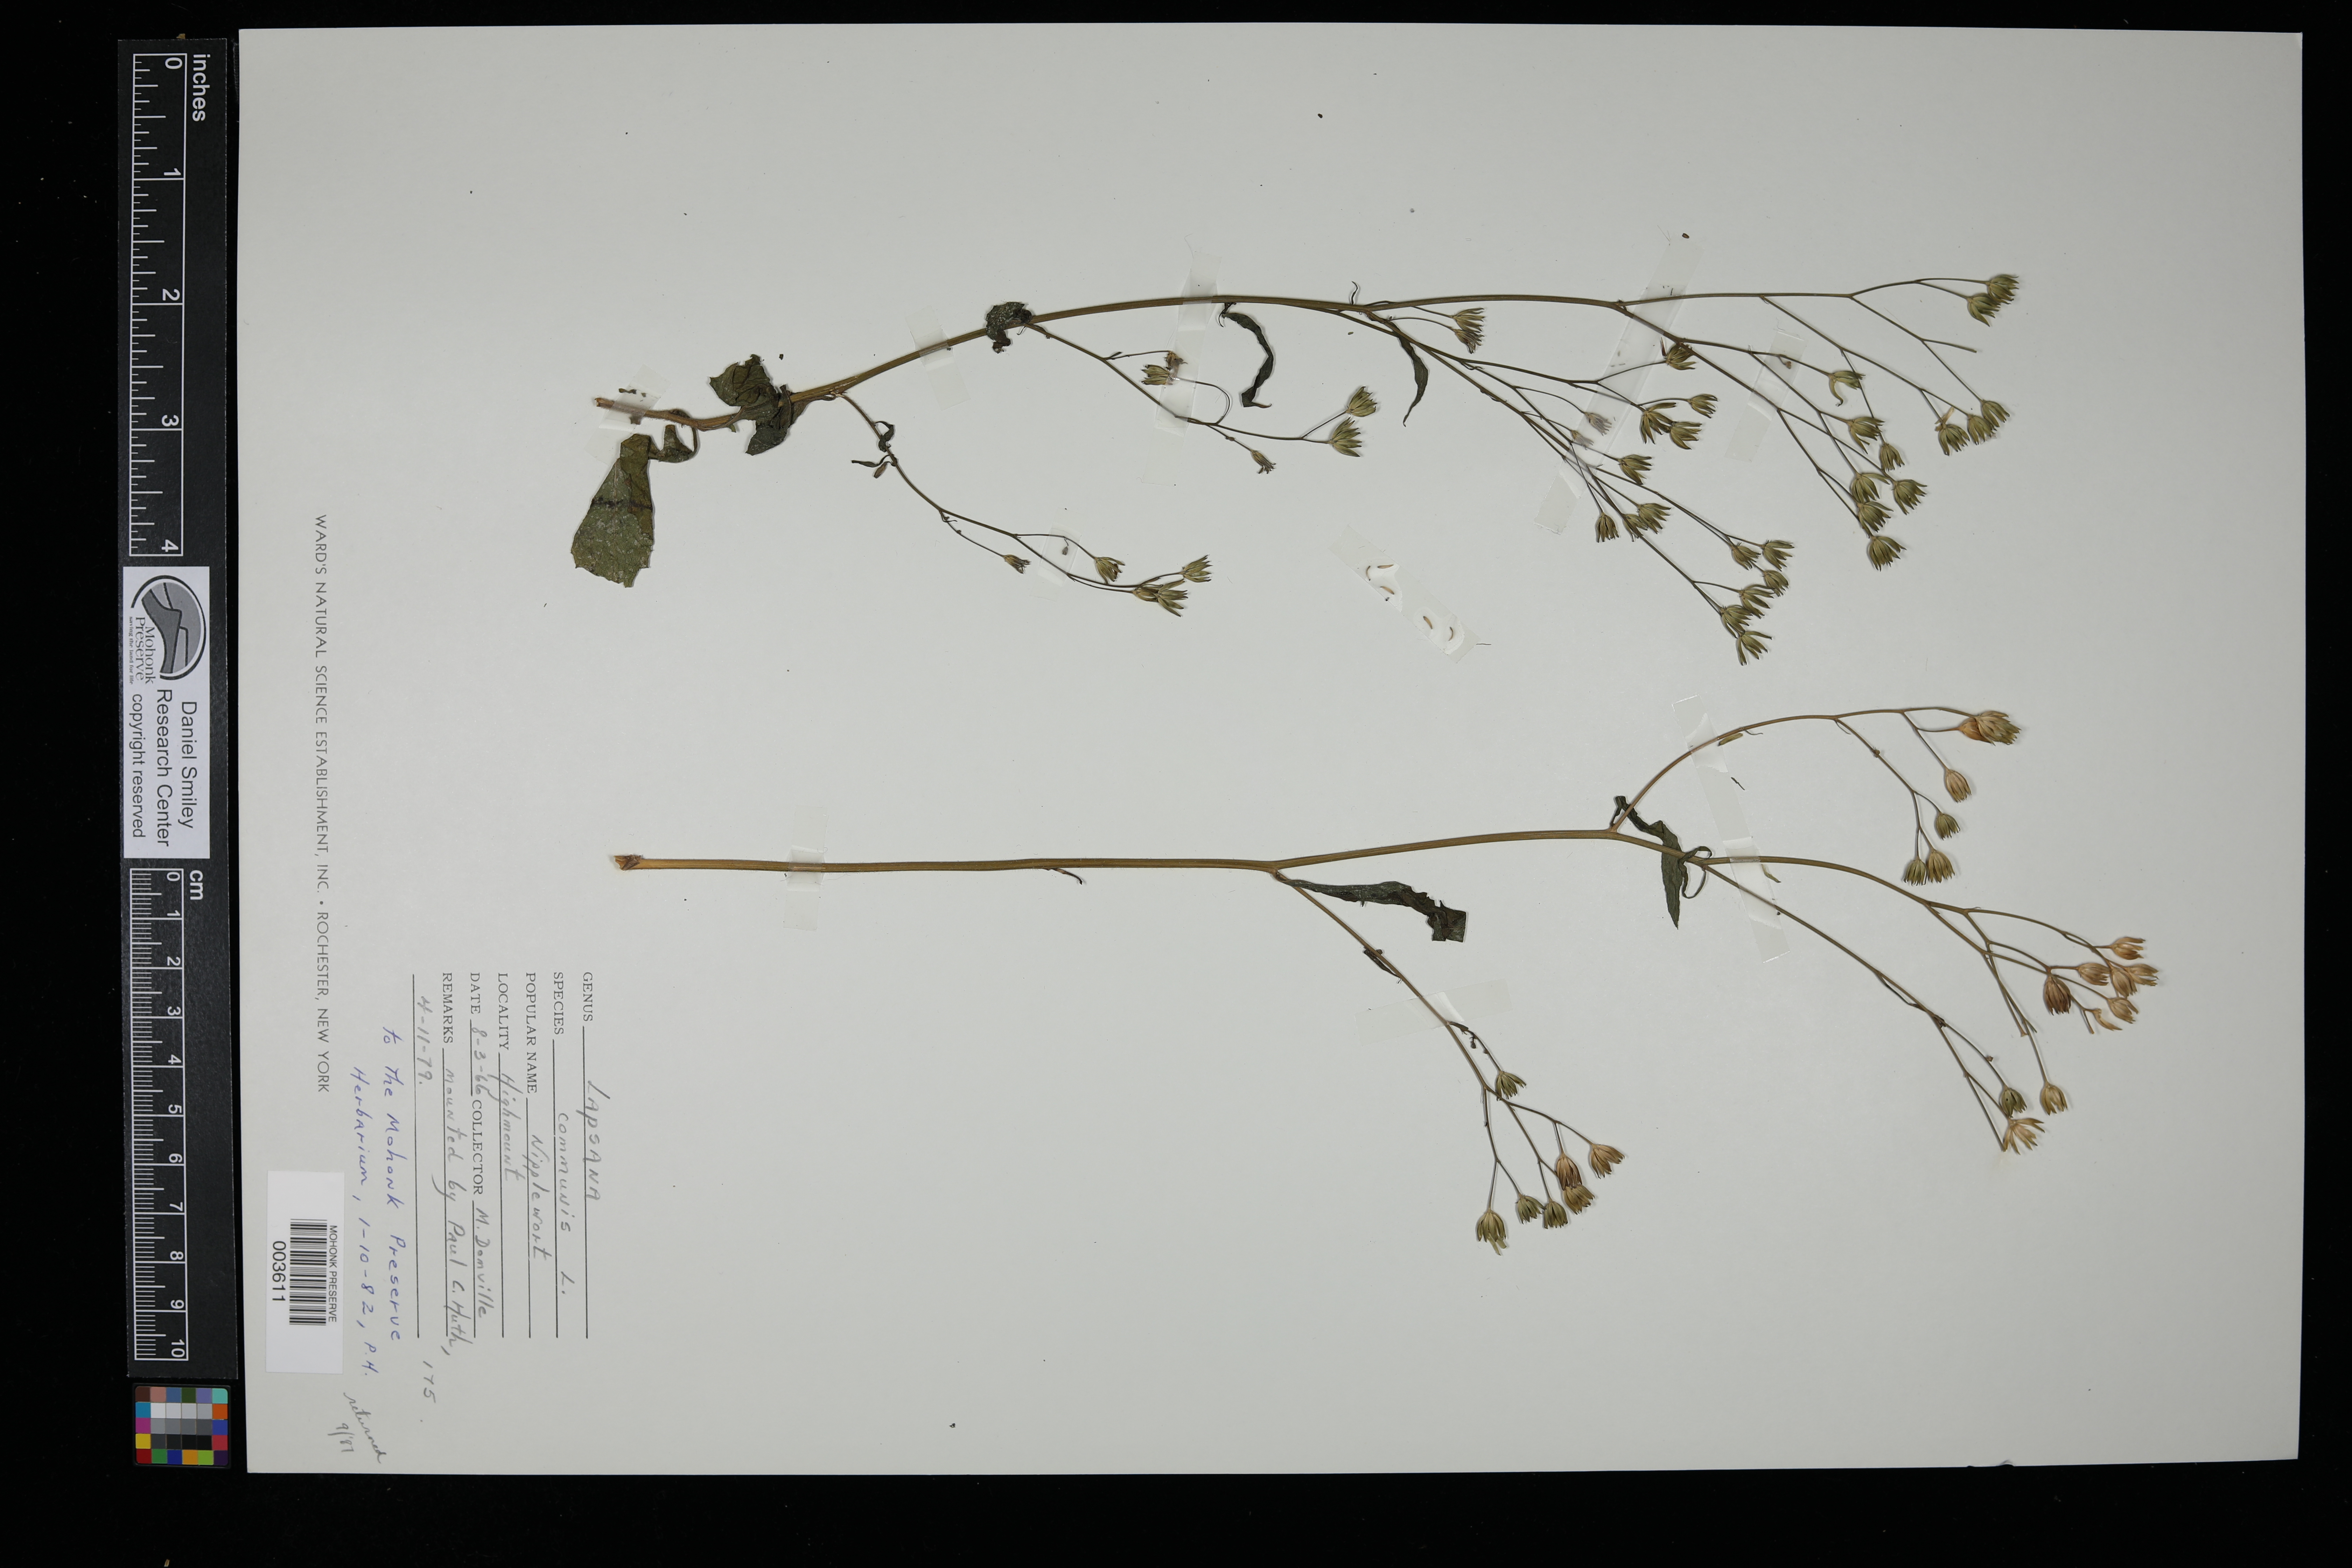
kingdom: Plantae
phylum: Tracheophyta
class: Magnoliopsida
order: Asterales
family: Asteraceae
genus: Lapsana
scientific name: Lapsana communis
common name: Nipplewort
